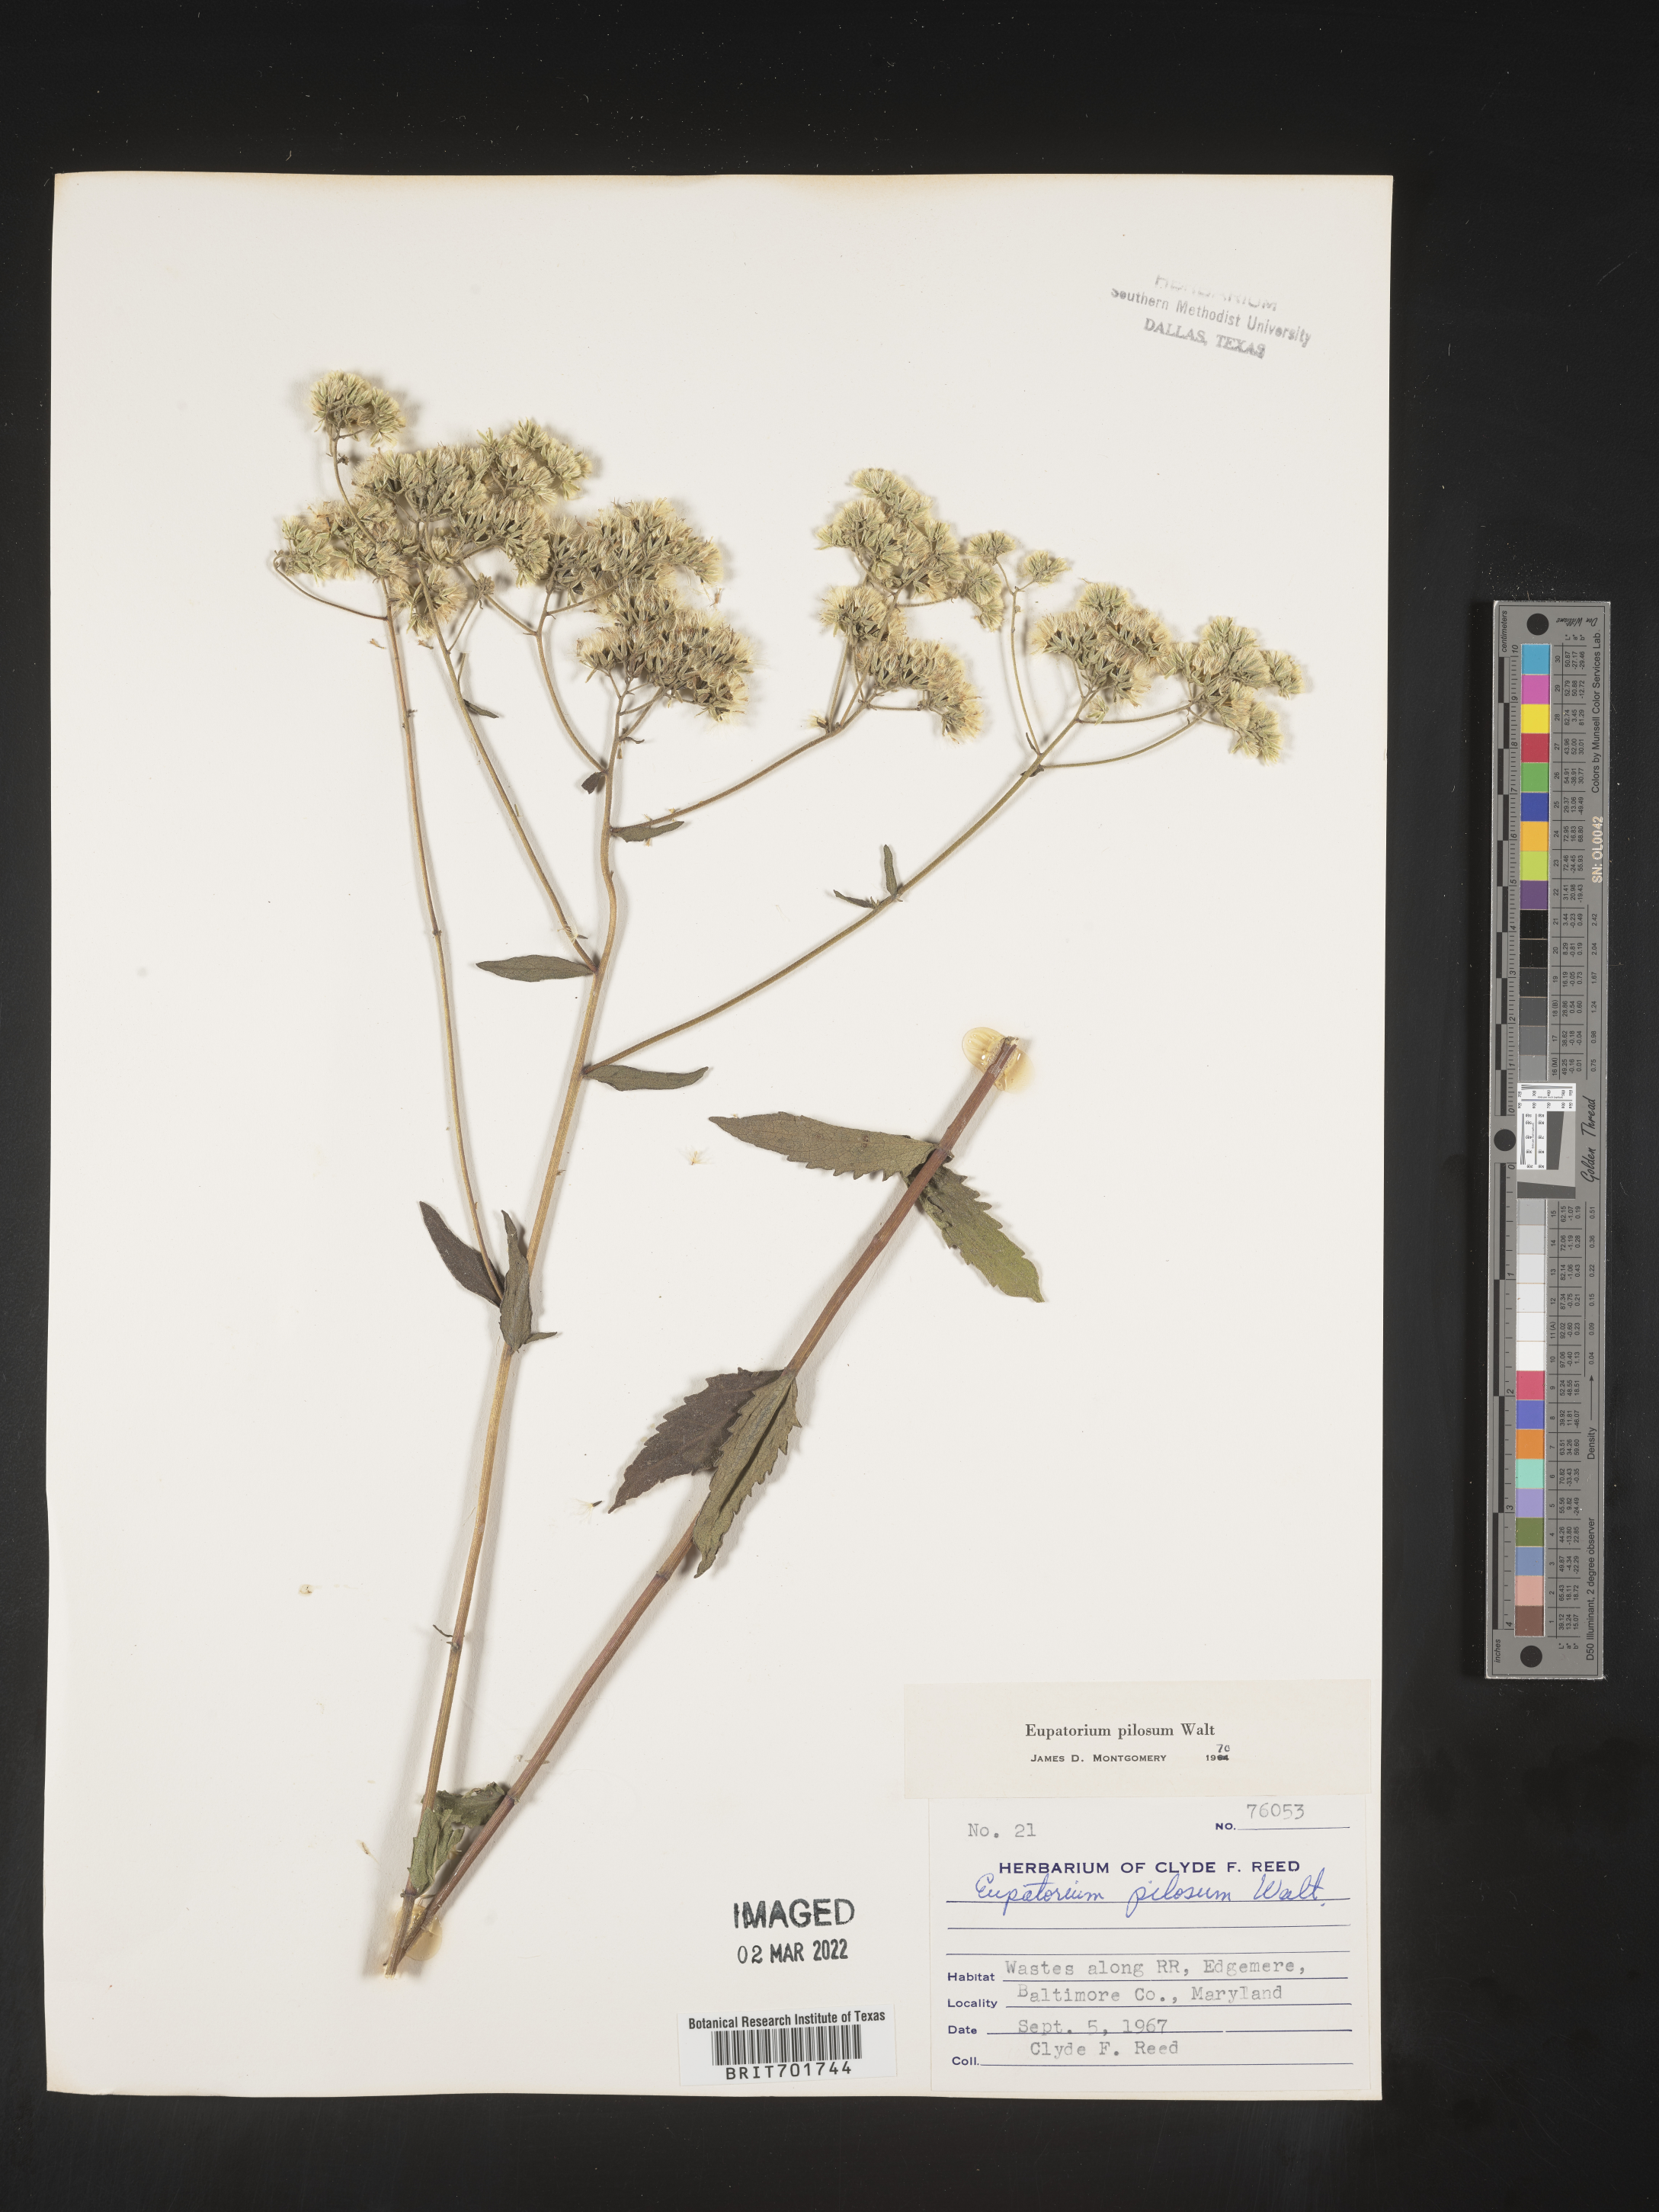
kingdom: Plantae
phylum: Tracheophyta
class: Magnoliopsida
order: Asterales
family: Asteraceae
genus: Eupatorium
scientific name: Eupatorium pilosum
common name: Rough boneset
